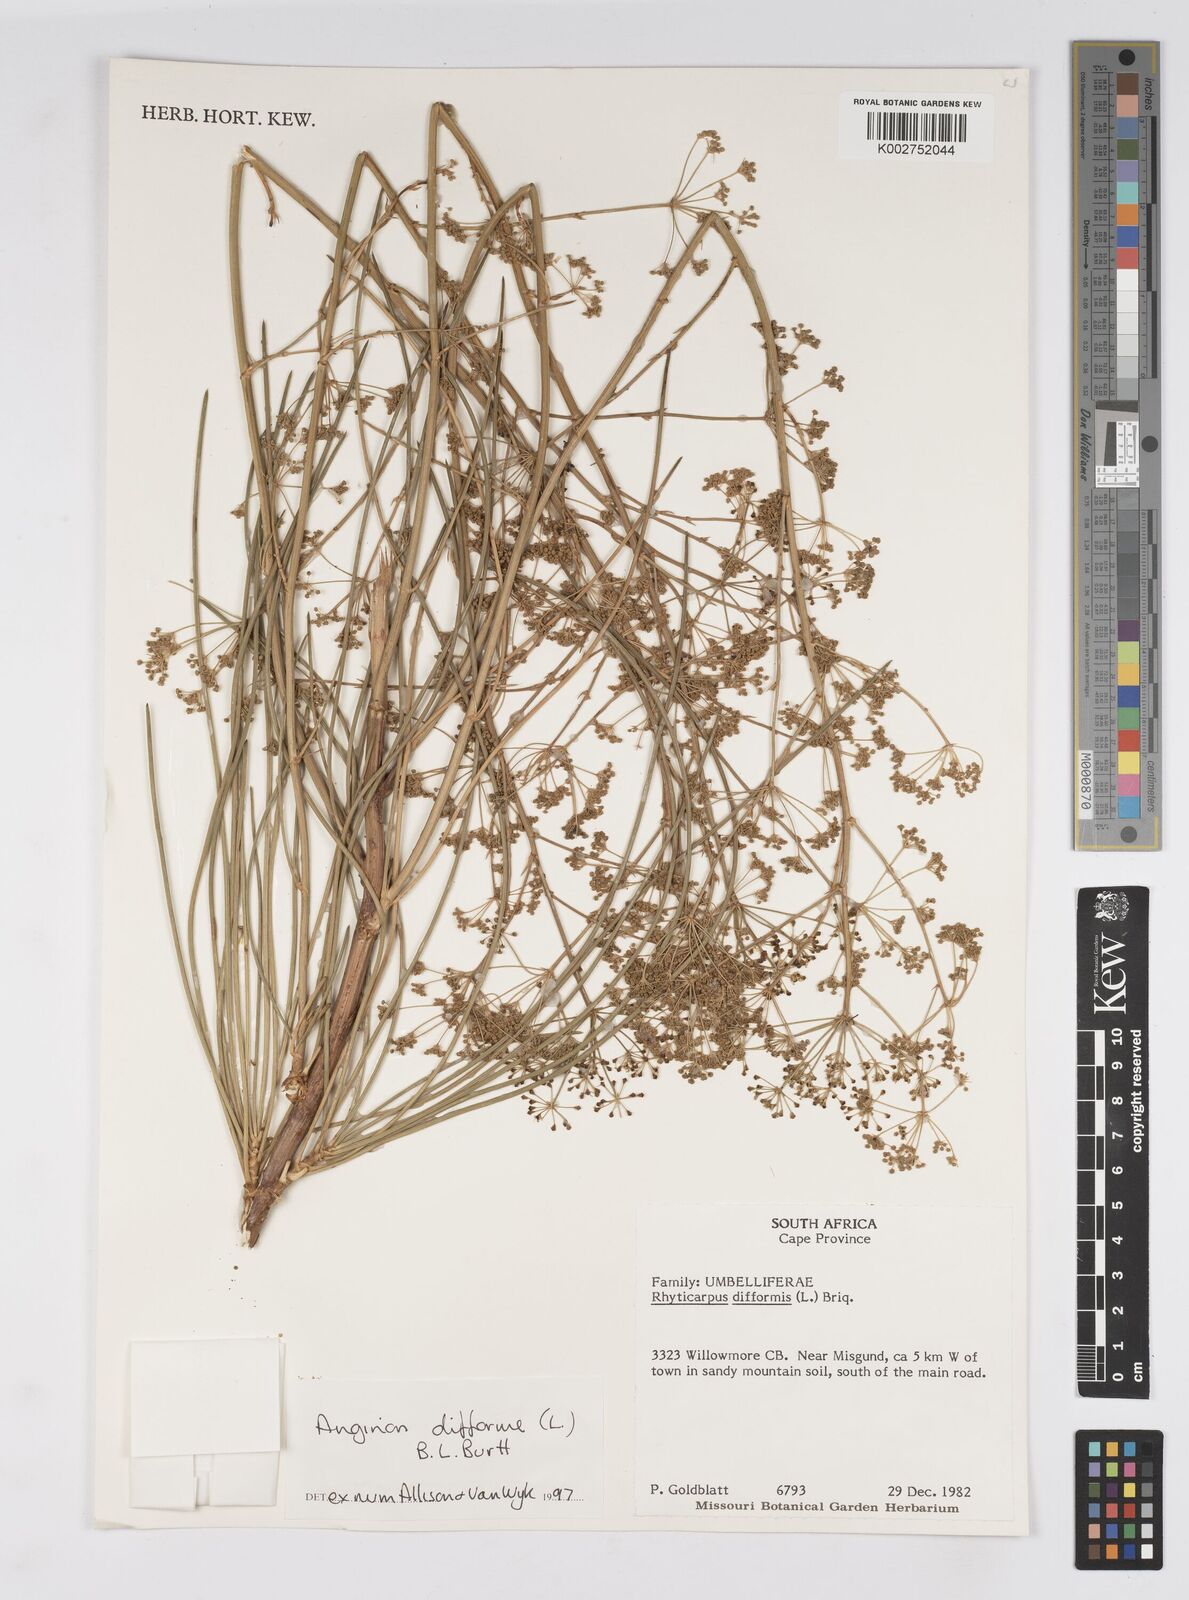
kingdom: Plantae
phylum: Tracheophyta
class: Magnoliopsida
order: Apiales
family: Apiaceae
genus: Anginon
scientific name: Anginon difforme
